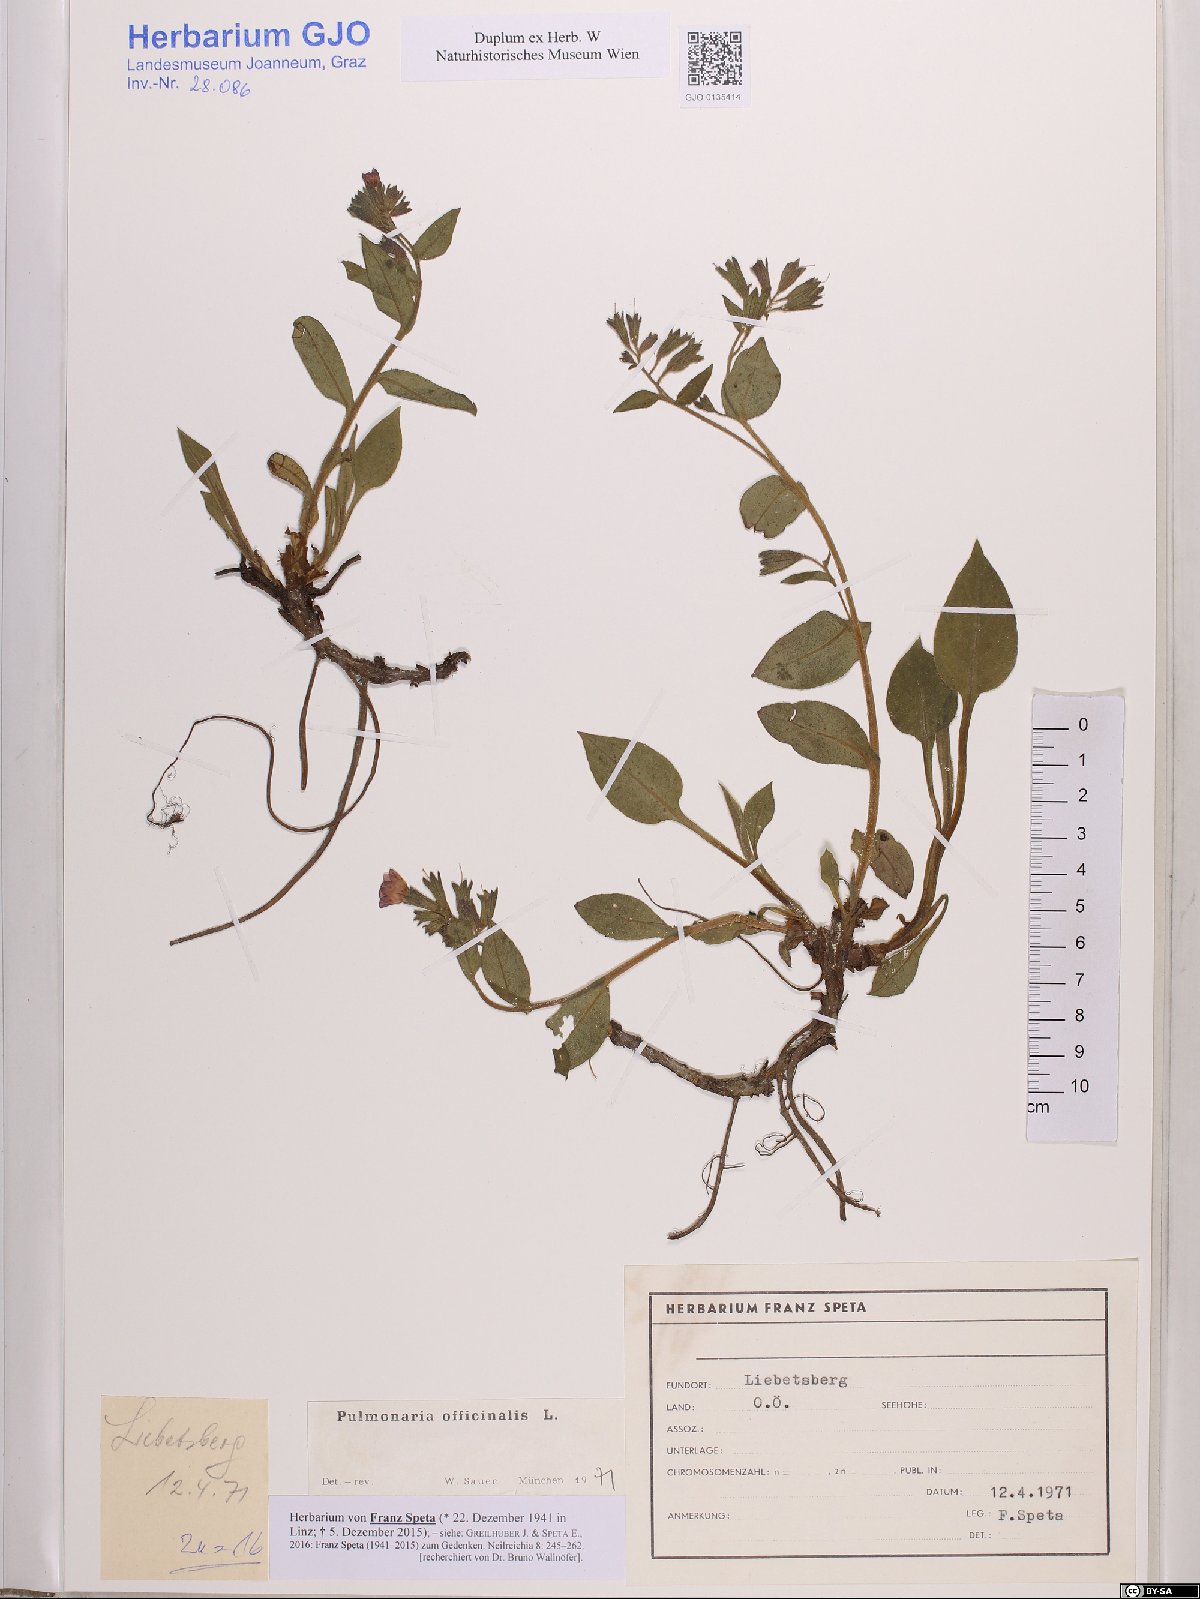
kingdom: Plantae
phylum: Tracheophyta
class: Magnoliopsida
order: Boraginales
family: Boraginaceae
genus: Pulmonaria
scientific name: Pulmonaria officinalis
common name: Lungwort
